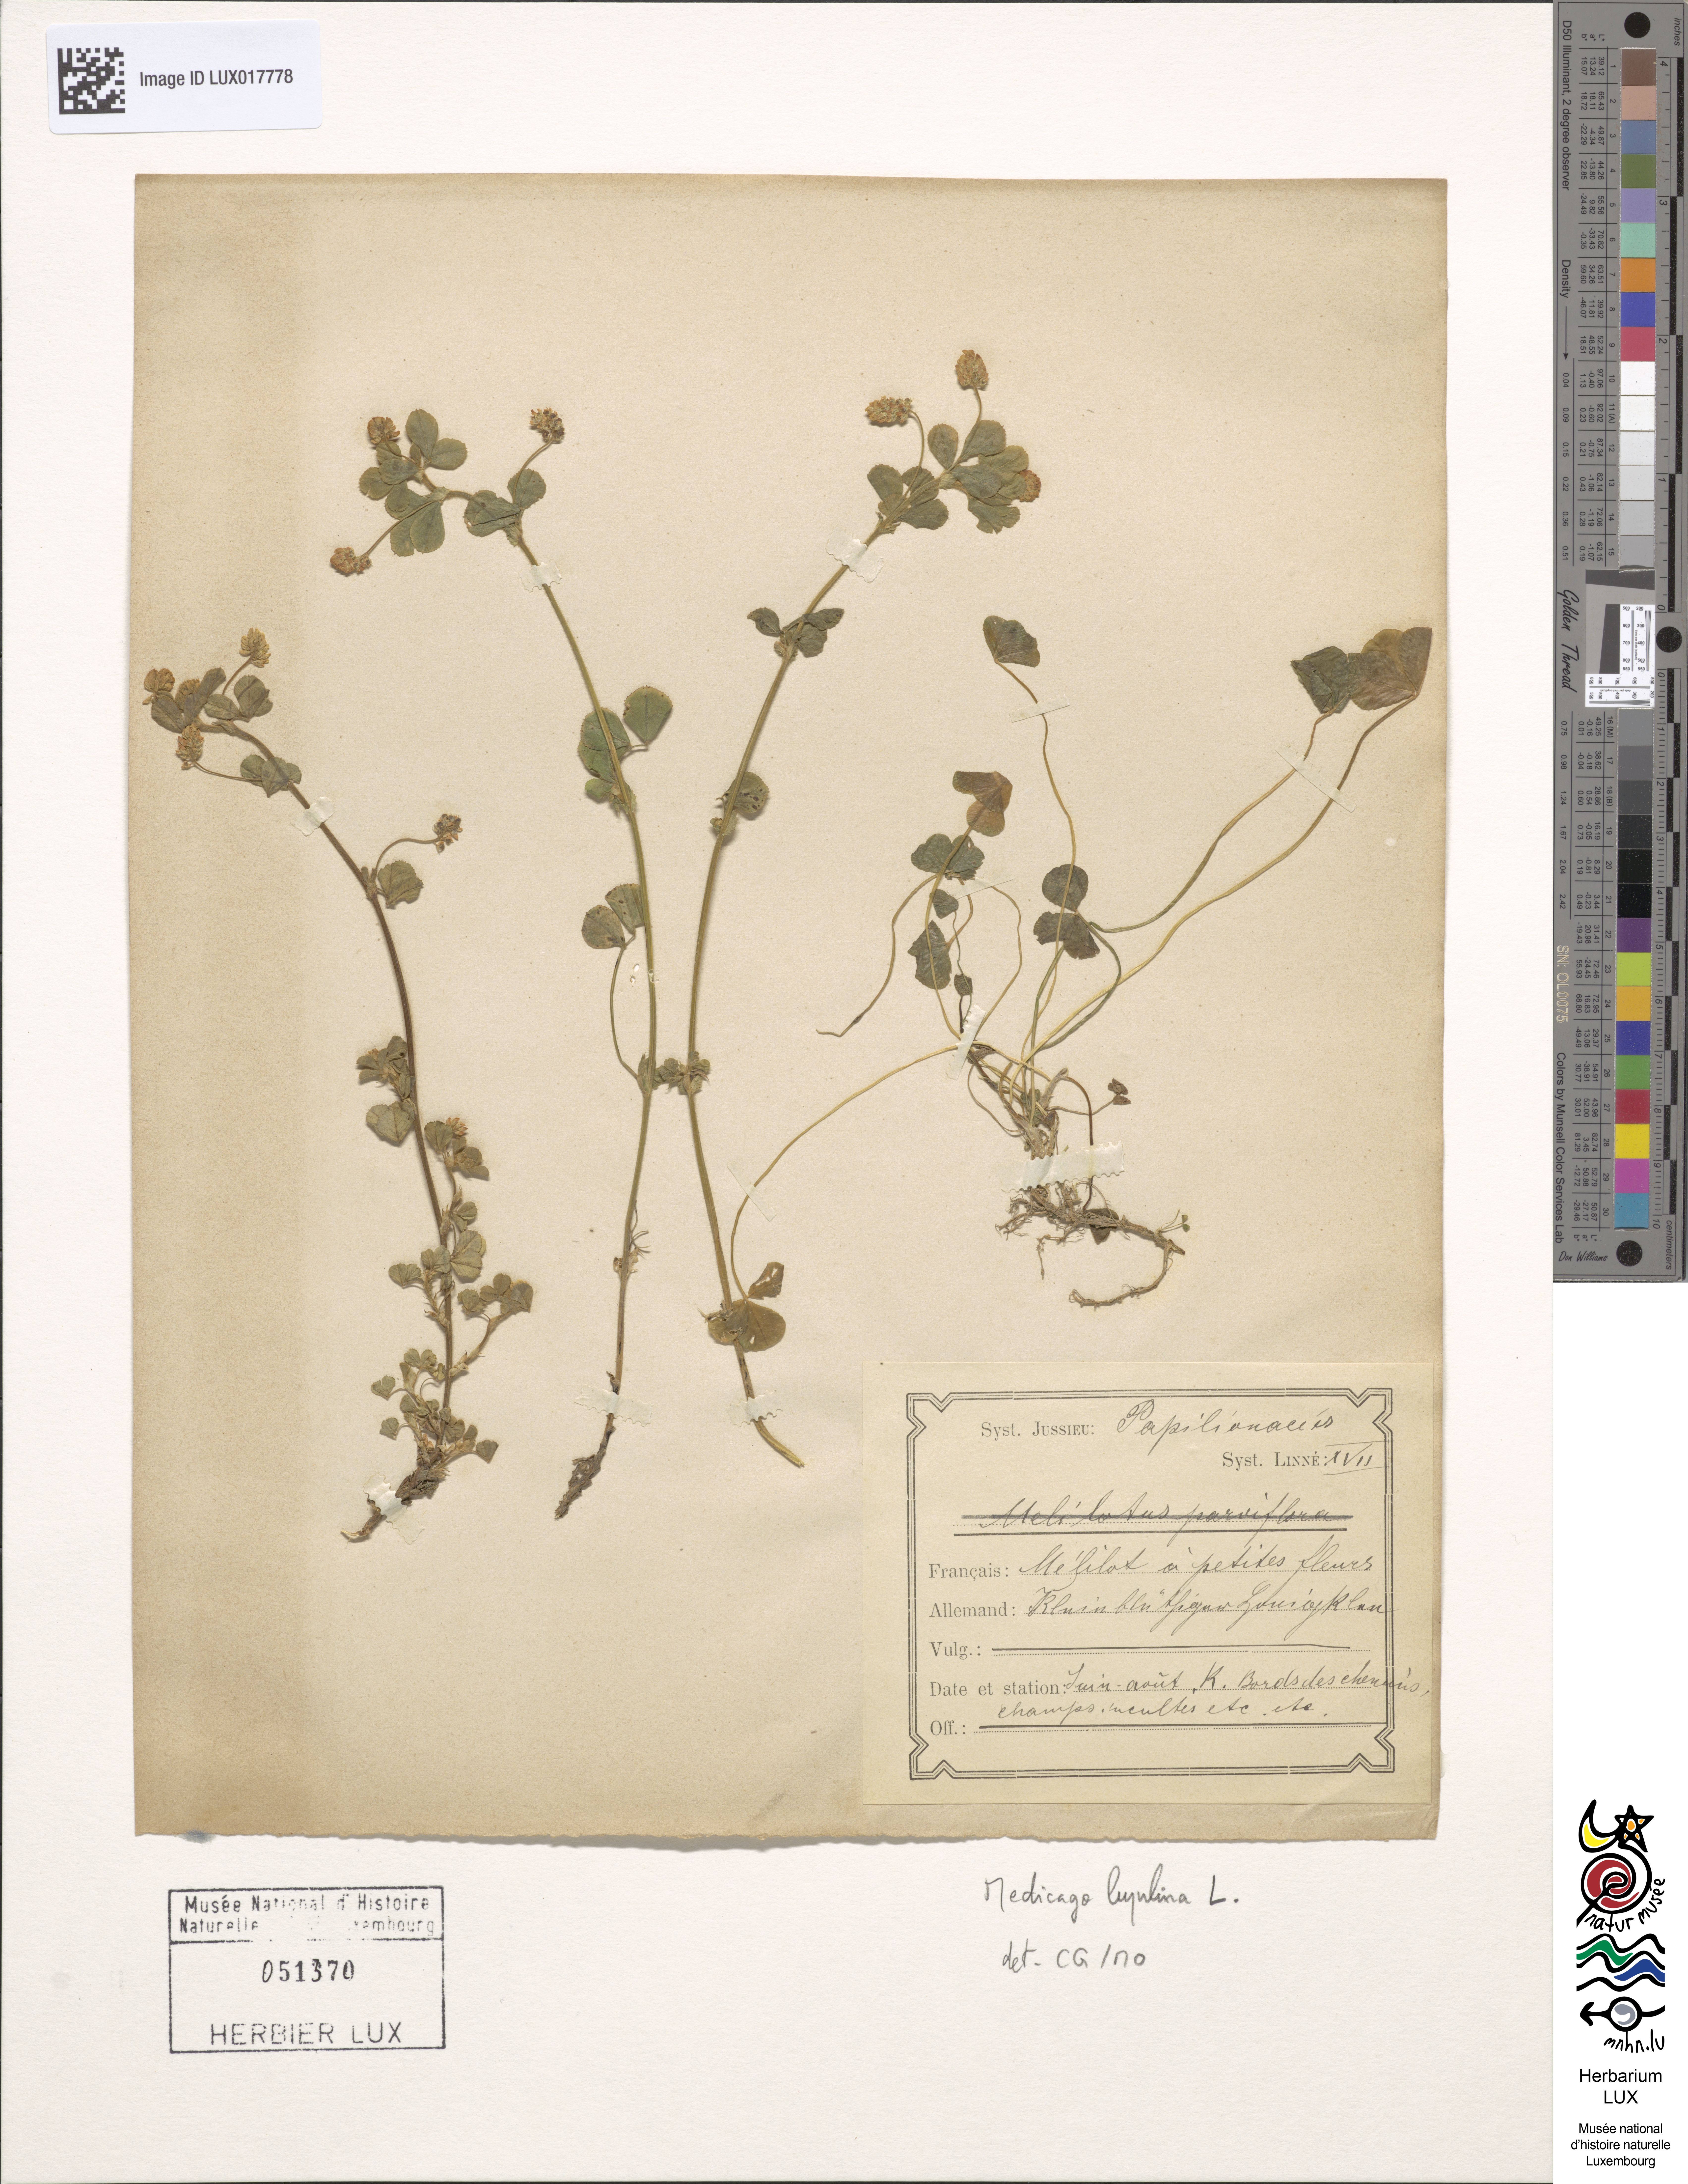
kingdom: Plantae
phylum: Tracheophyta
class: Magnoliopsida
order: Fabales
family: Fabaceae
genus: Medicago
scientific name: Medicago lupulina
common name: Black medick
